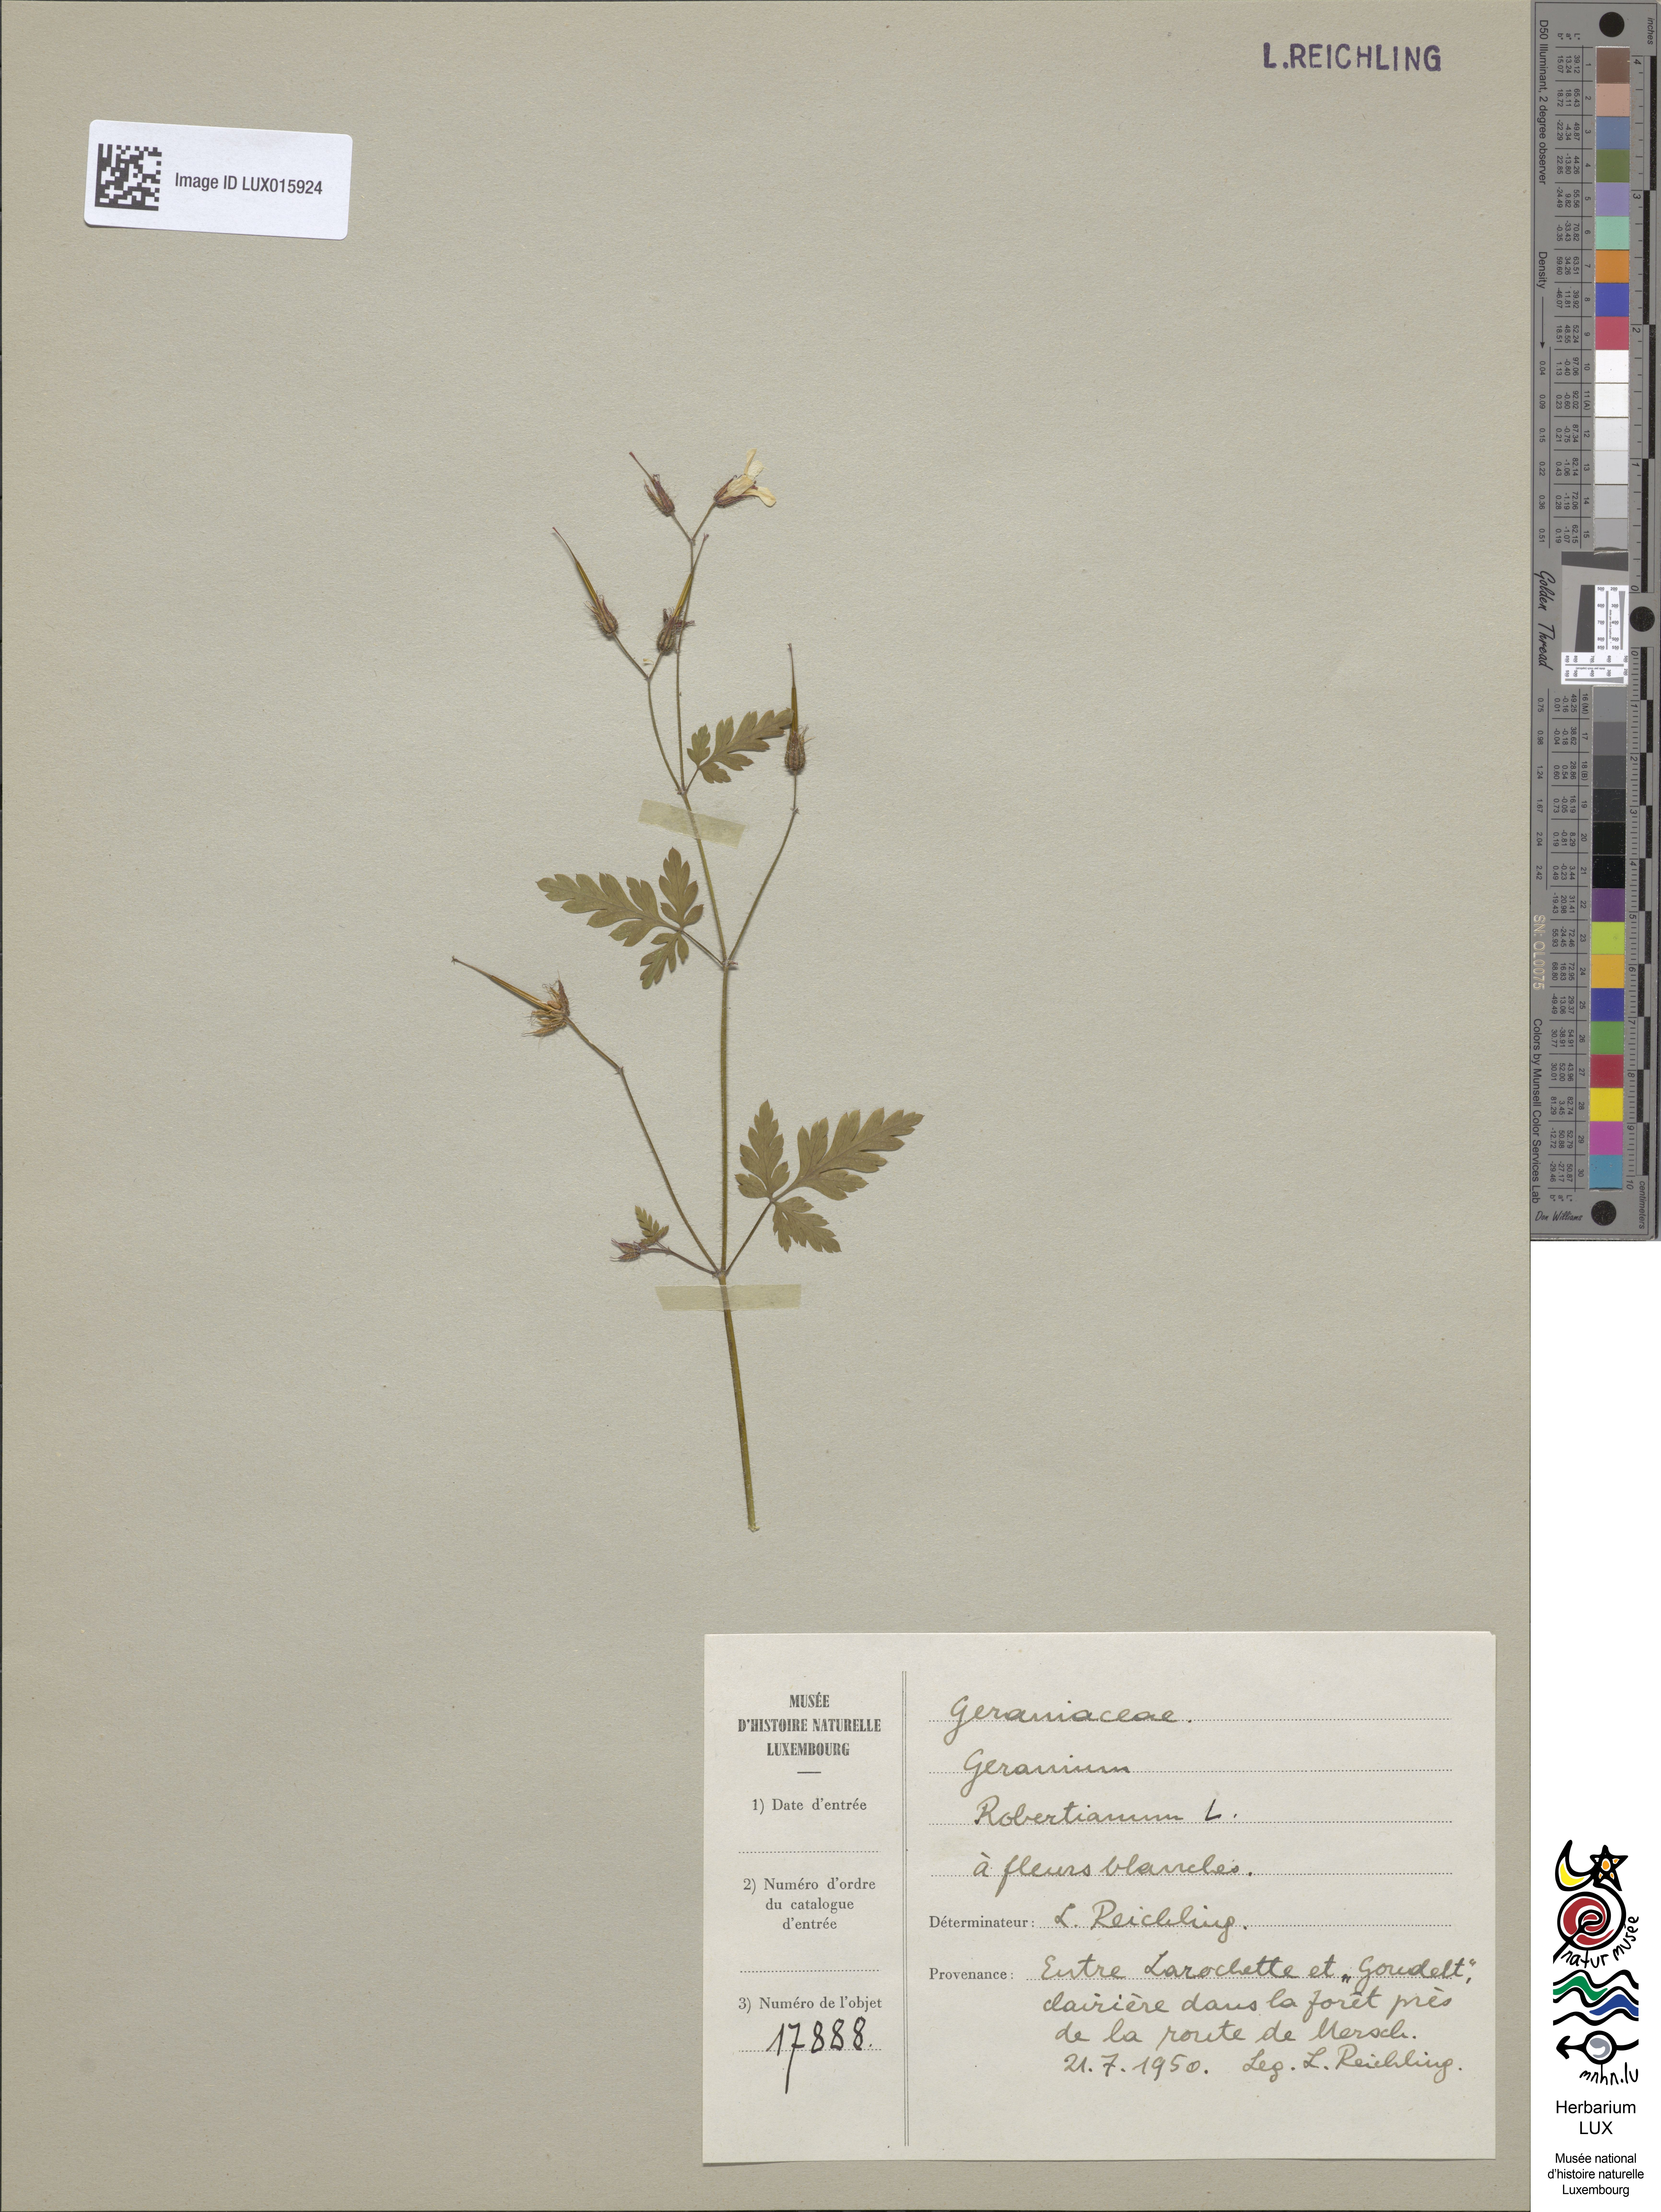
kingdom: Plantae
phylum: Tracheophyta
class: Magnoliopsida
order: Geraniales
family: Geraniaceae
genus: Geranium
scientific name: Geranium robertianum
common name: Herb-robert
